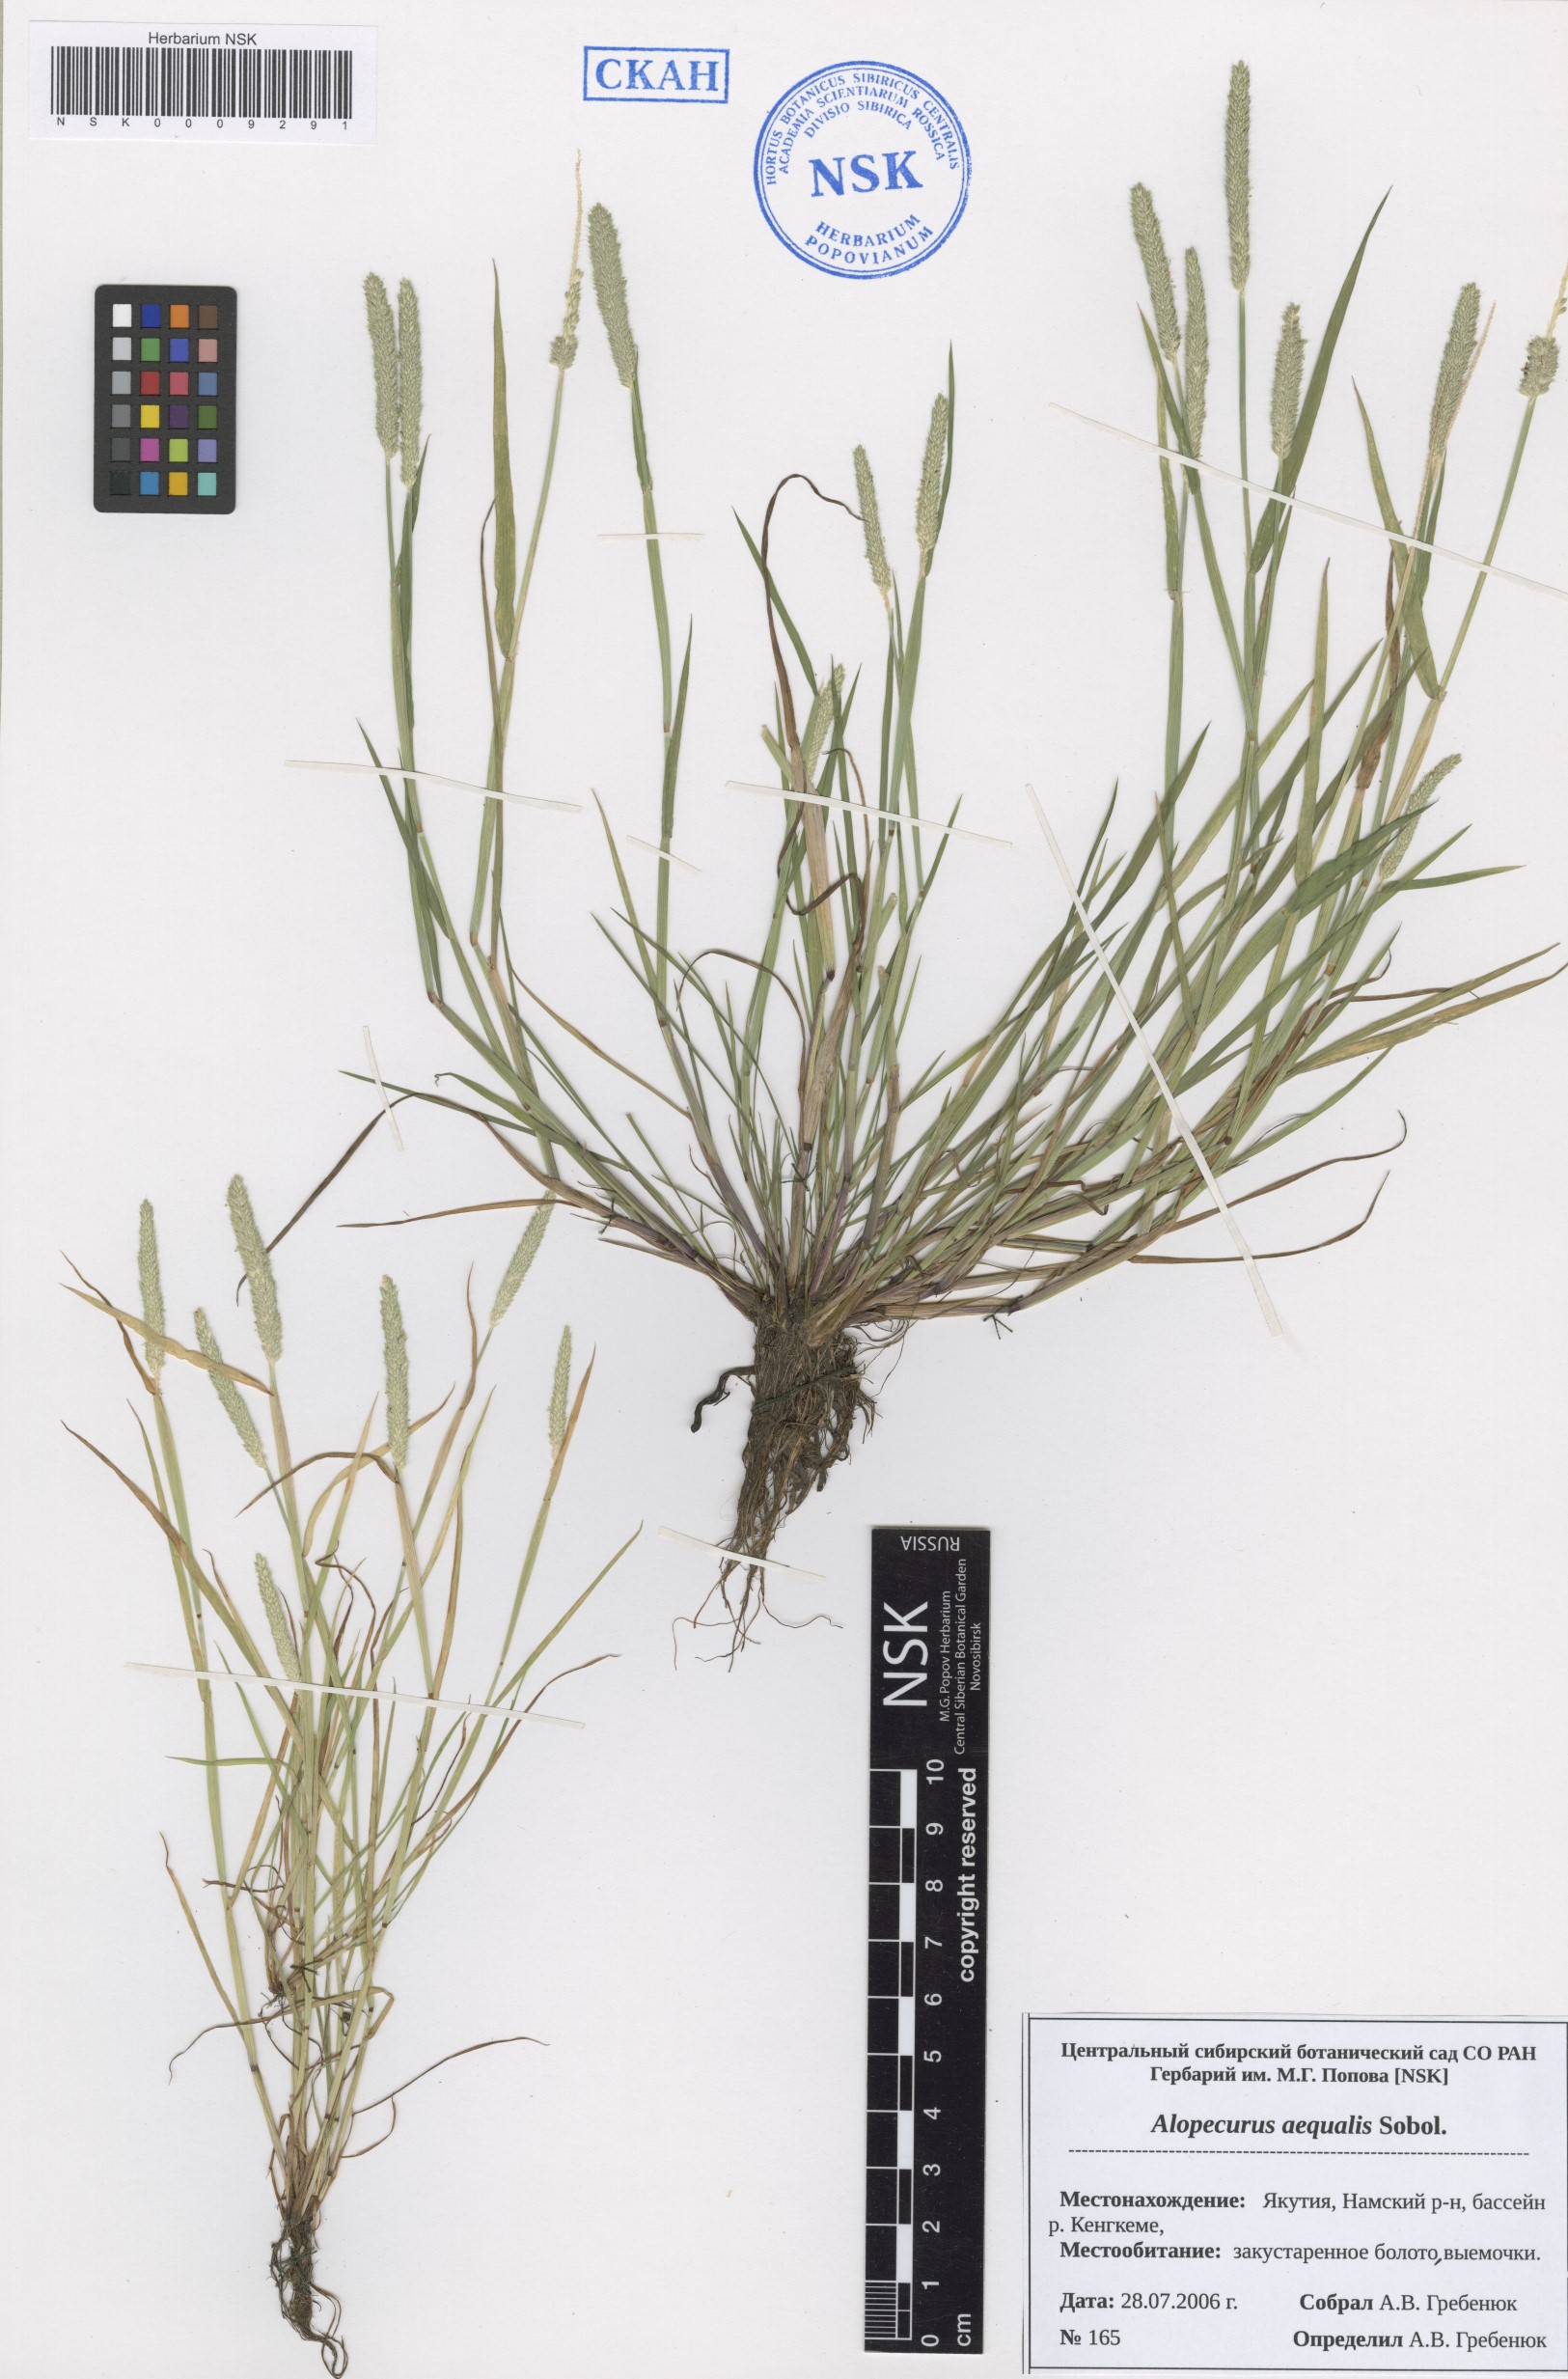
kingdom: Plantae
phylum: Tracheophyta
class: Liliopsida
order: Poales
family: Poaceae
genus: Alopecurus
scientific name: Alopecurus aequalis
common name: Orange foxtail
